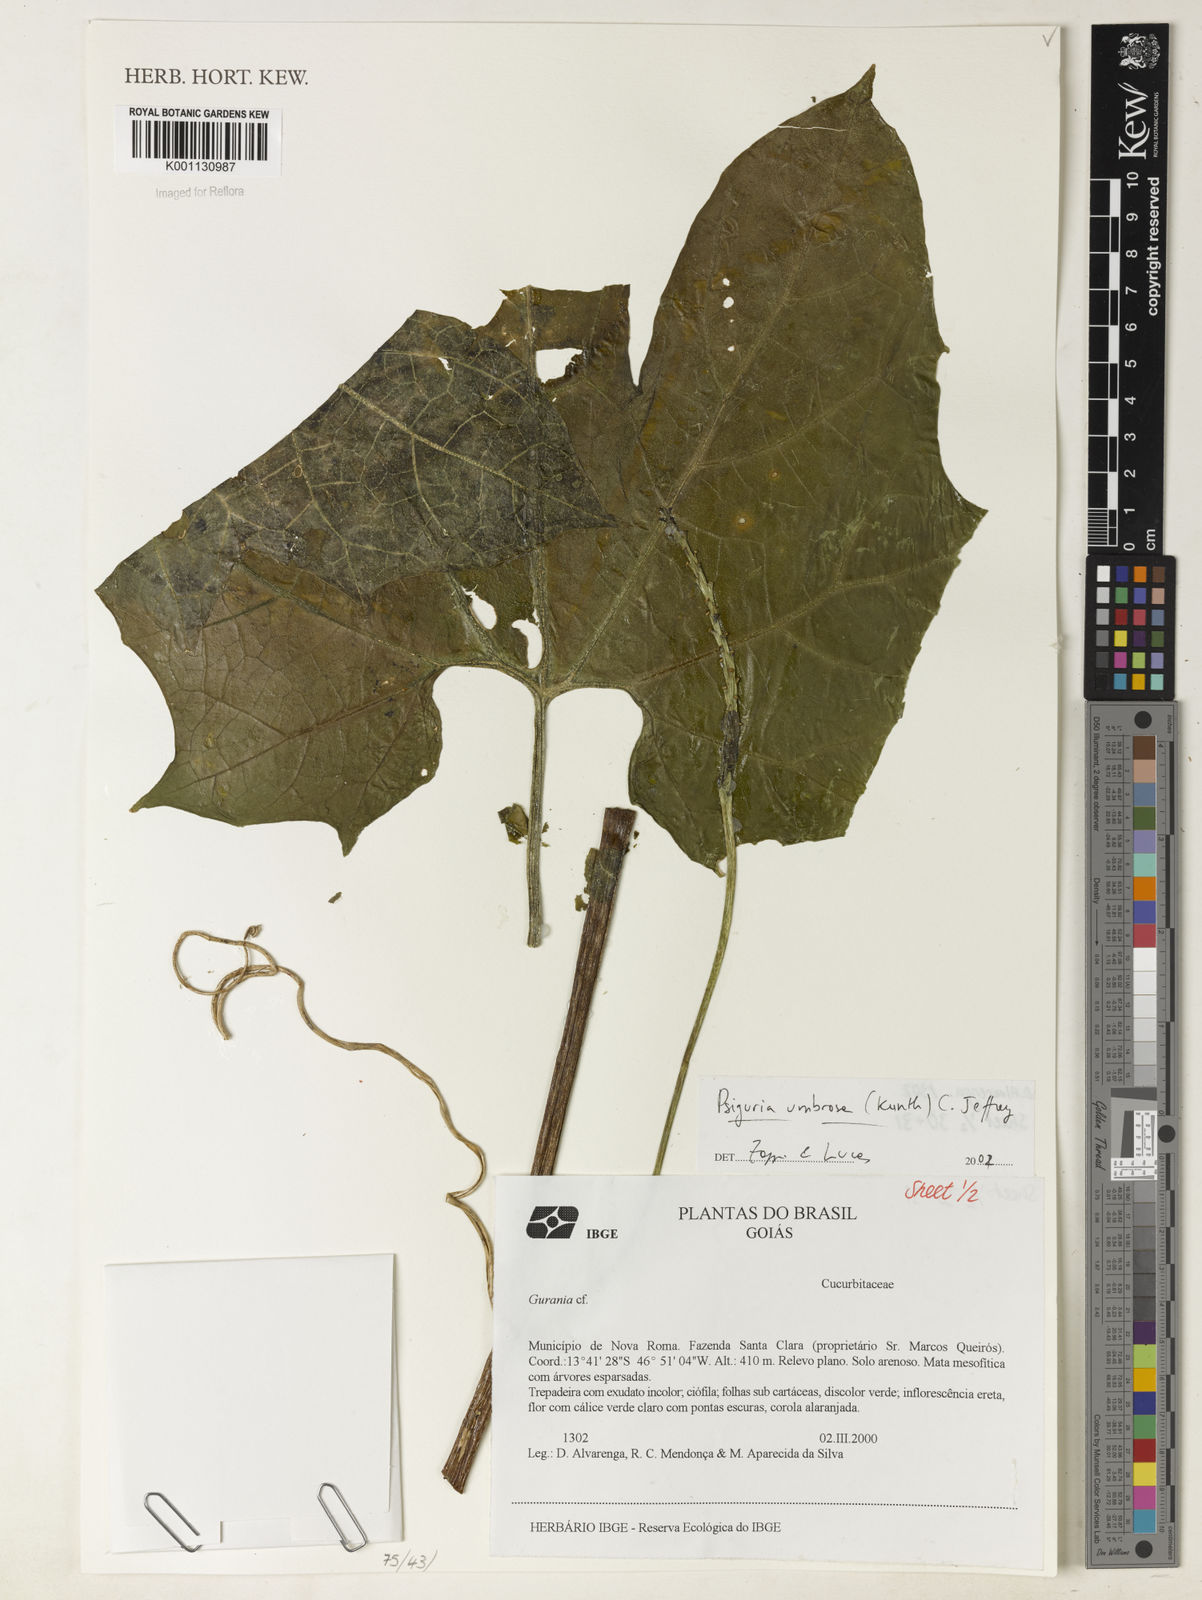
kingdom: Plantae
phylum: Tracheophyta
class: Magnoliopsida
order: Cucurbitales
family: Cucurbitaceae
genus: Psiguria
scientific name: Psiguria umbrosa
